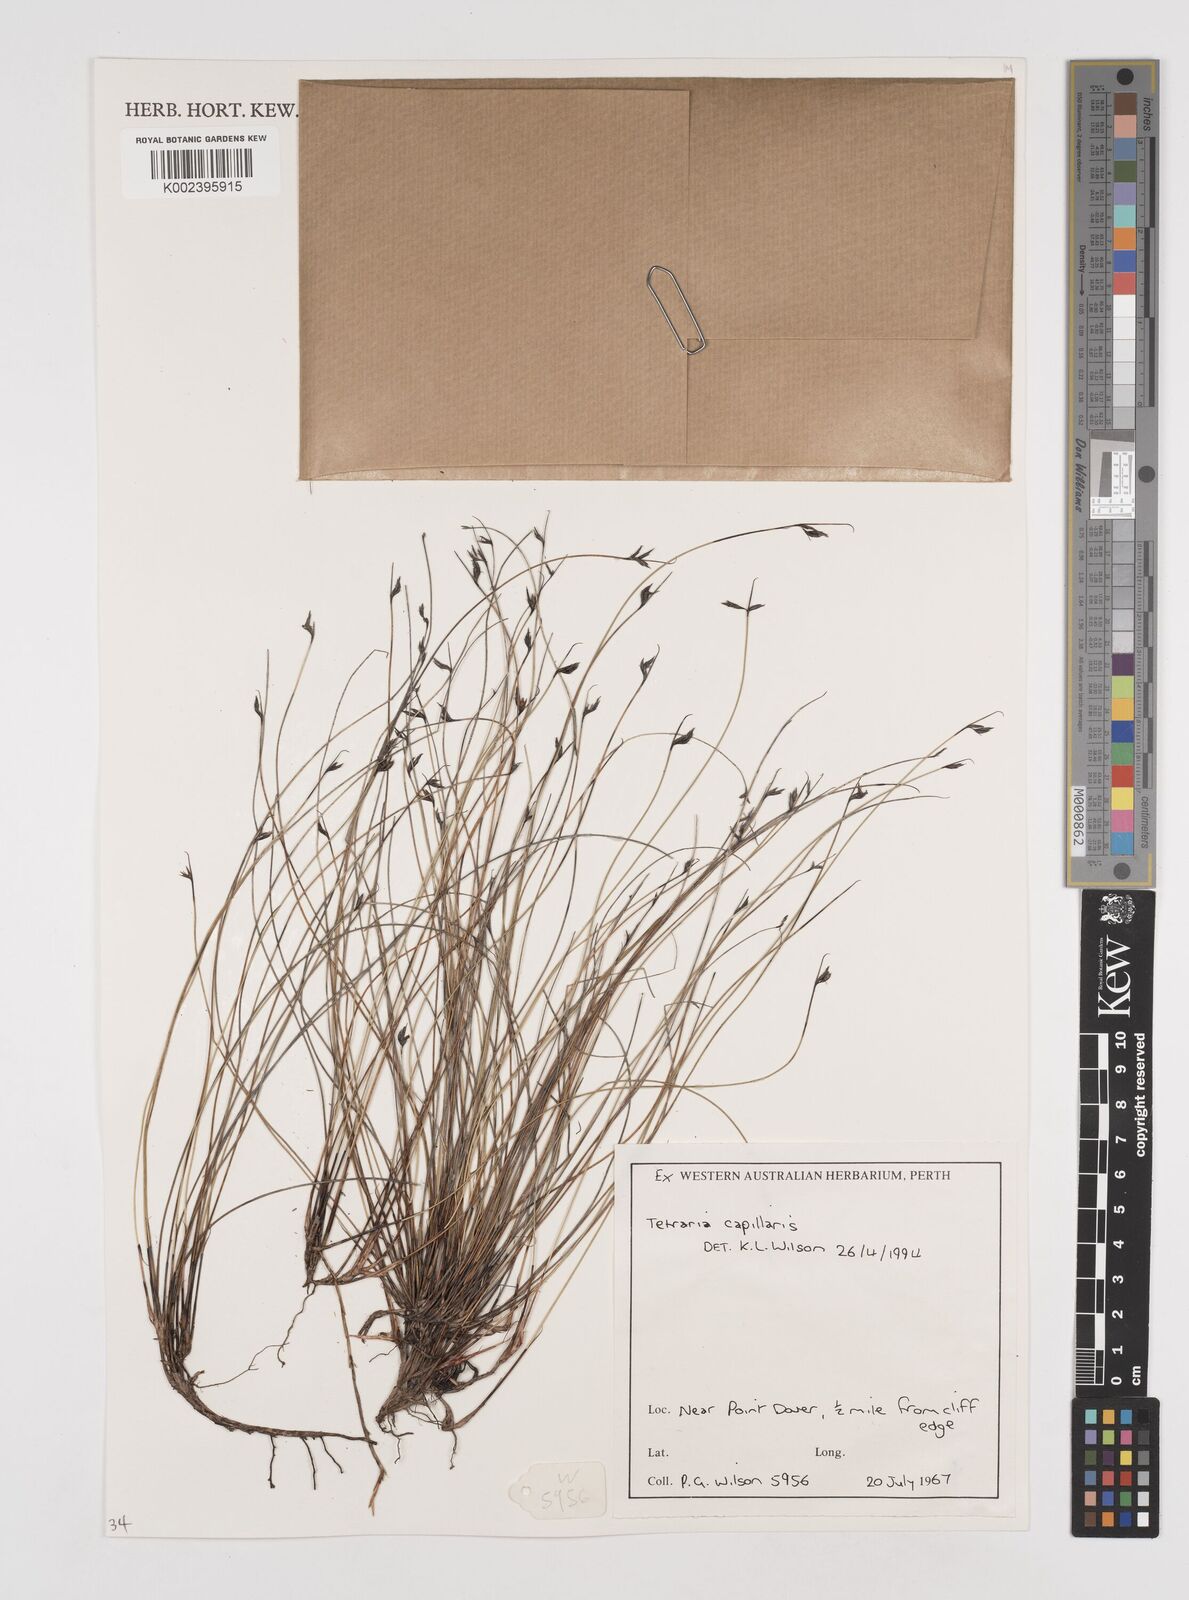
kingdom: Plantae
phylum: Tracheophyta
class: Liliopsida
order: Poales
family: Cyperaceae
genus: Tetraria
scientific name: Tetraria capillaris
